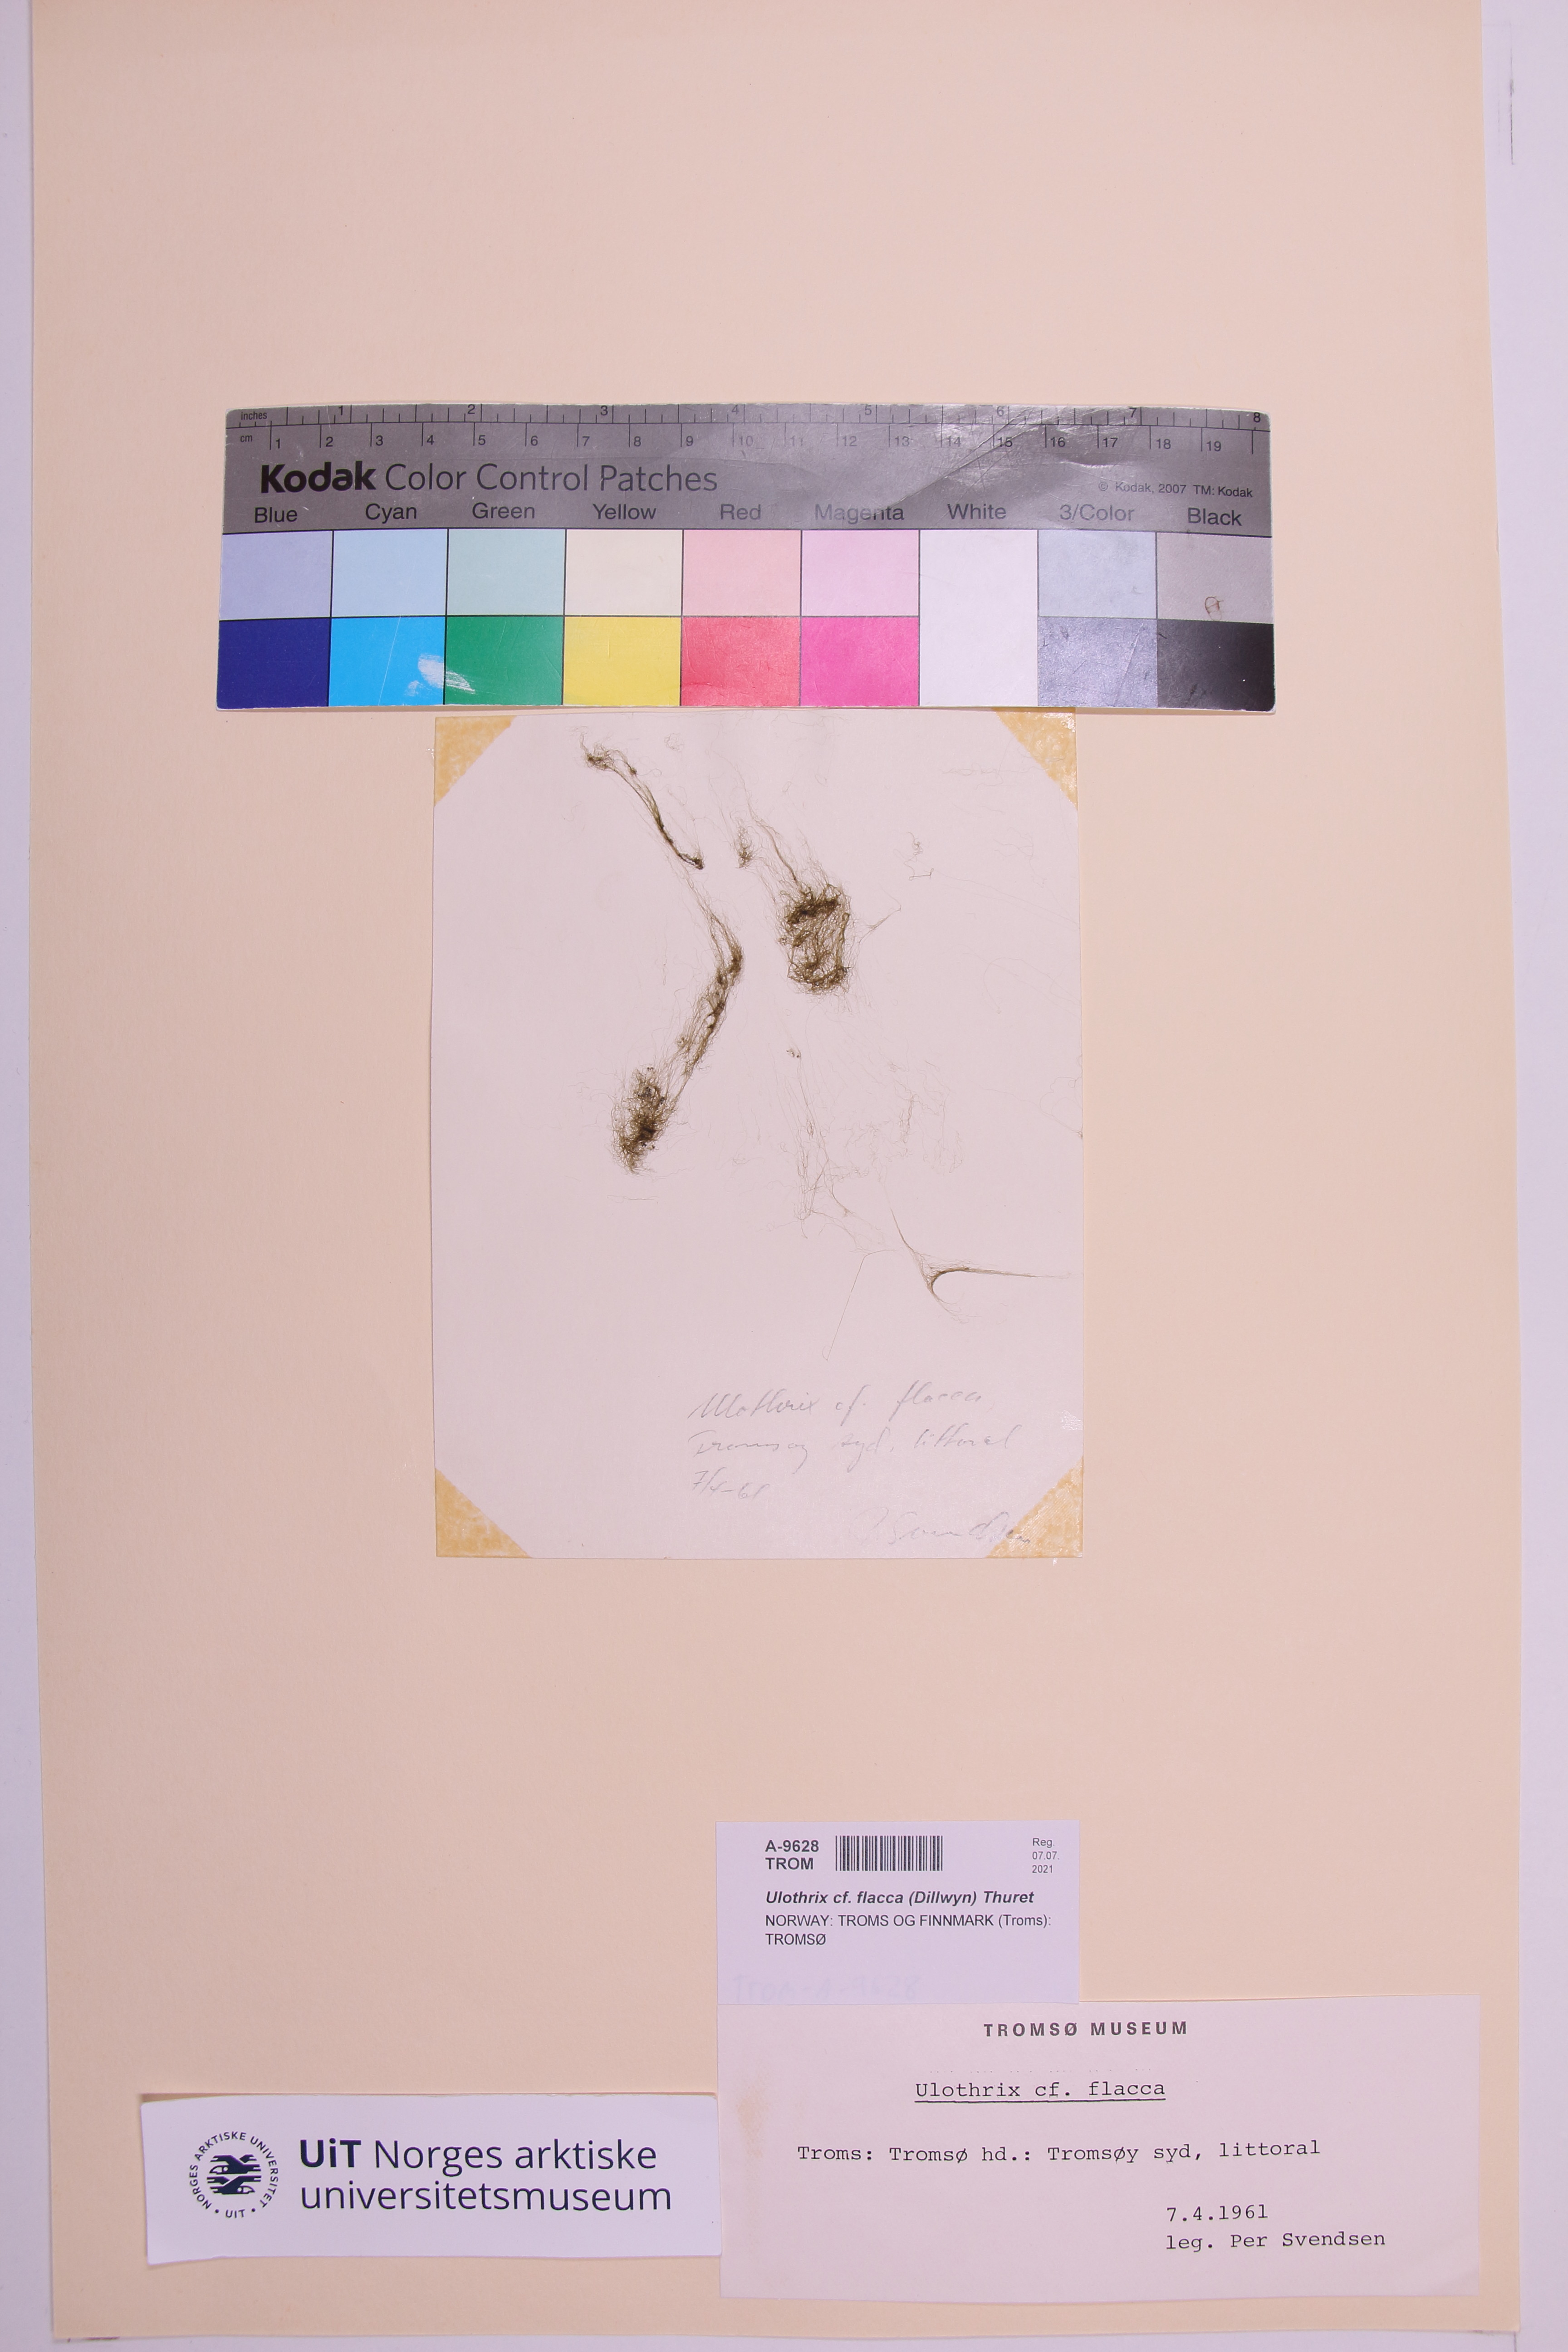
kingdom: Plantae
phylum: Chlorophyta
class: Ulvophyceae
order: Ulotrichales
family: Ulotrichaceae
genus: Ulothrix
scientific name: Ulothrix flacca
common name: Woolly hair
